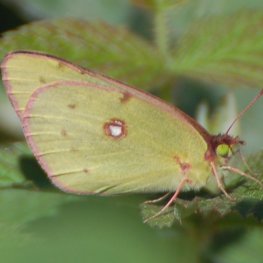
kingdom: Animalia
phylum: Arthropoda
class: Insecta
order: Lepidoptera
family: Pieridae
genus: Colias
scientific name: Colias philodice
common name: Clouded Sulphur
